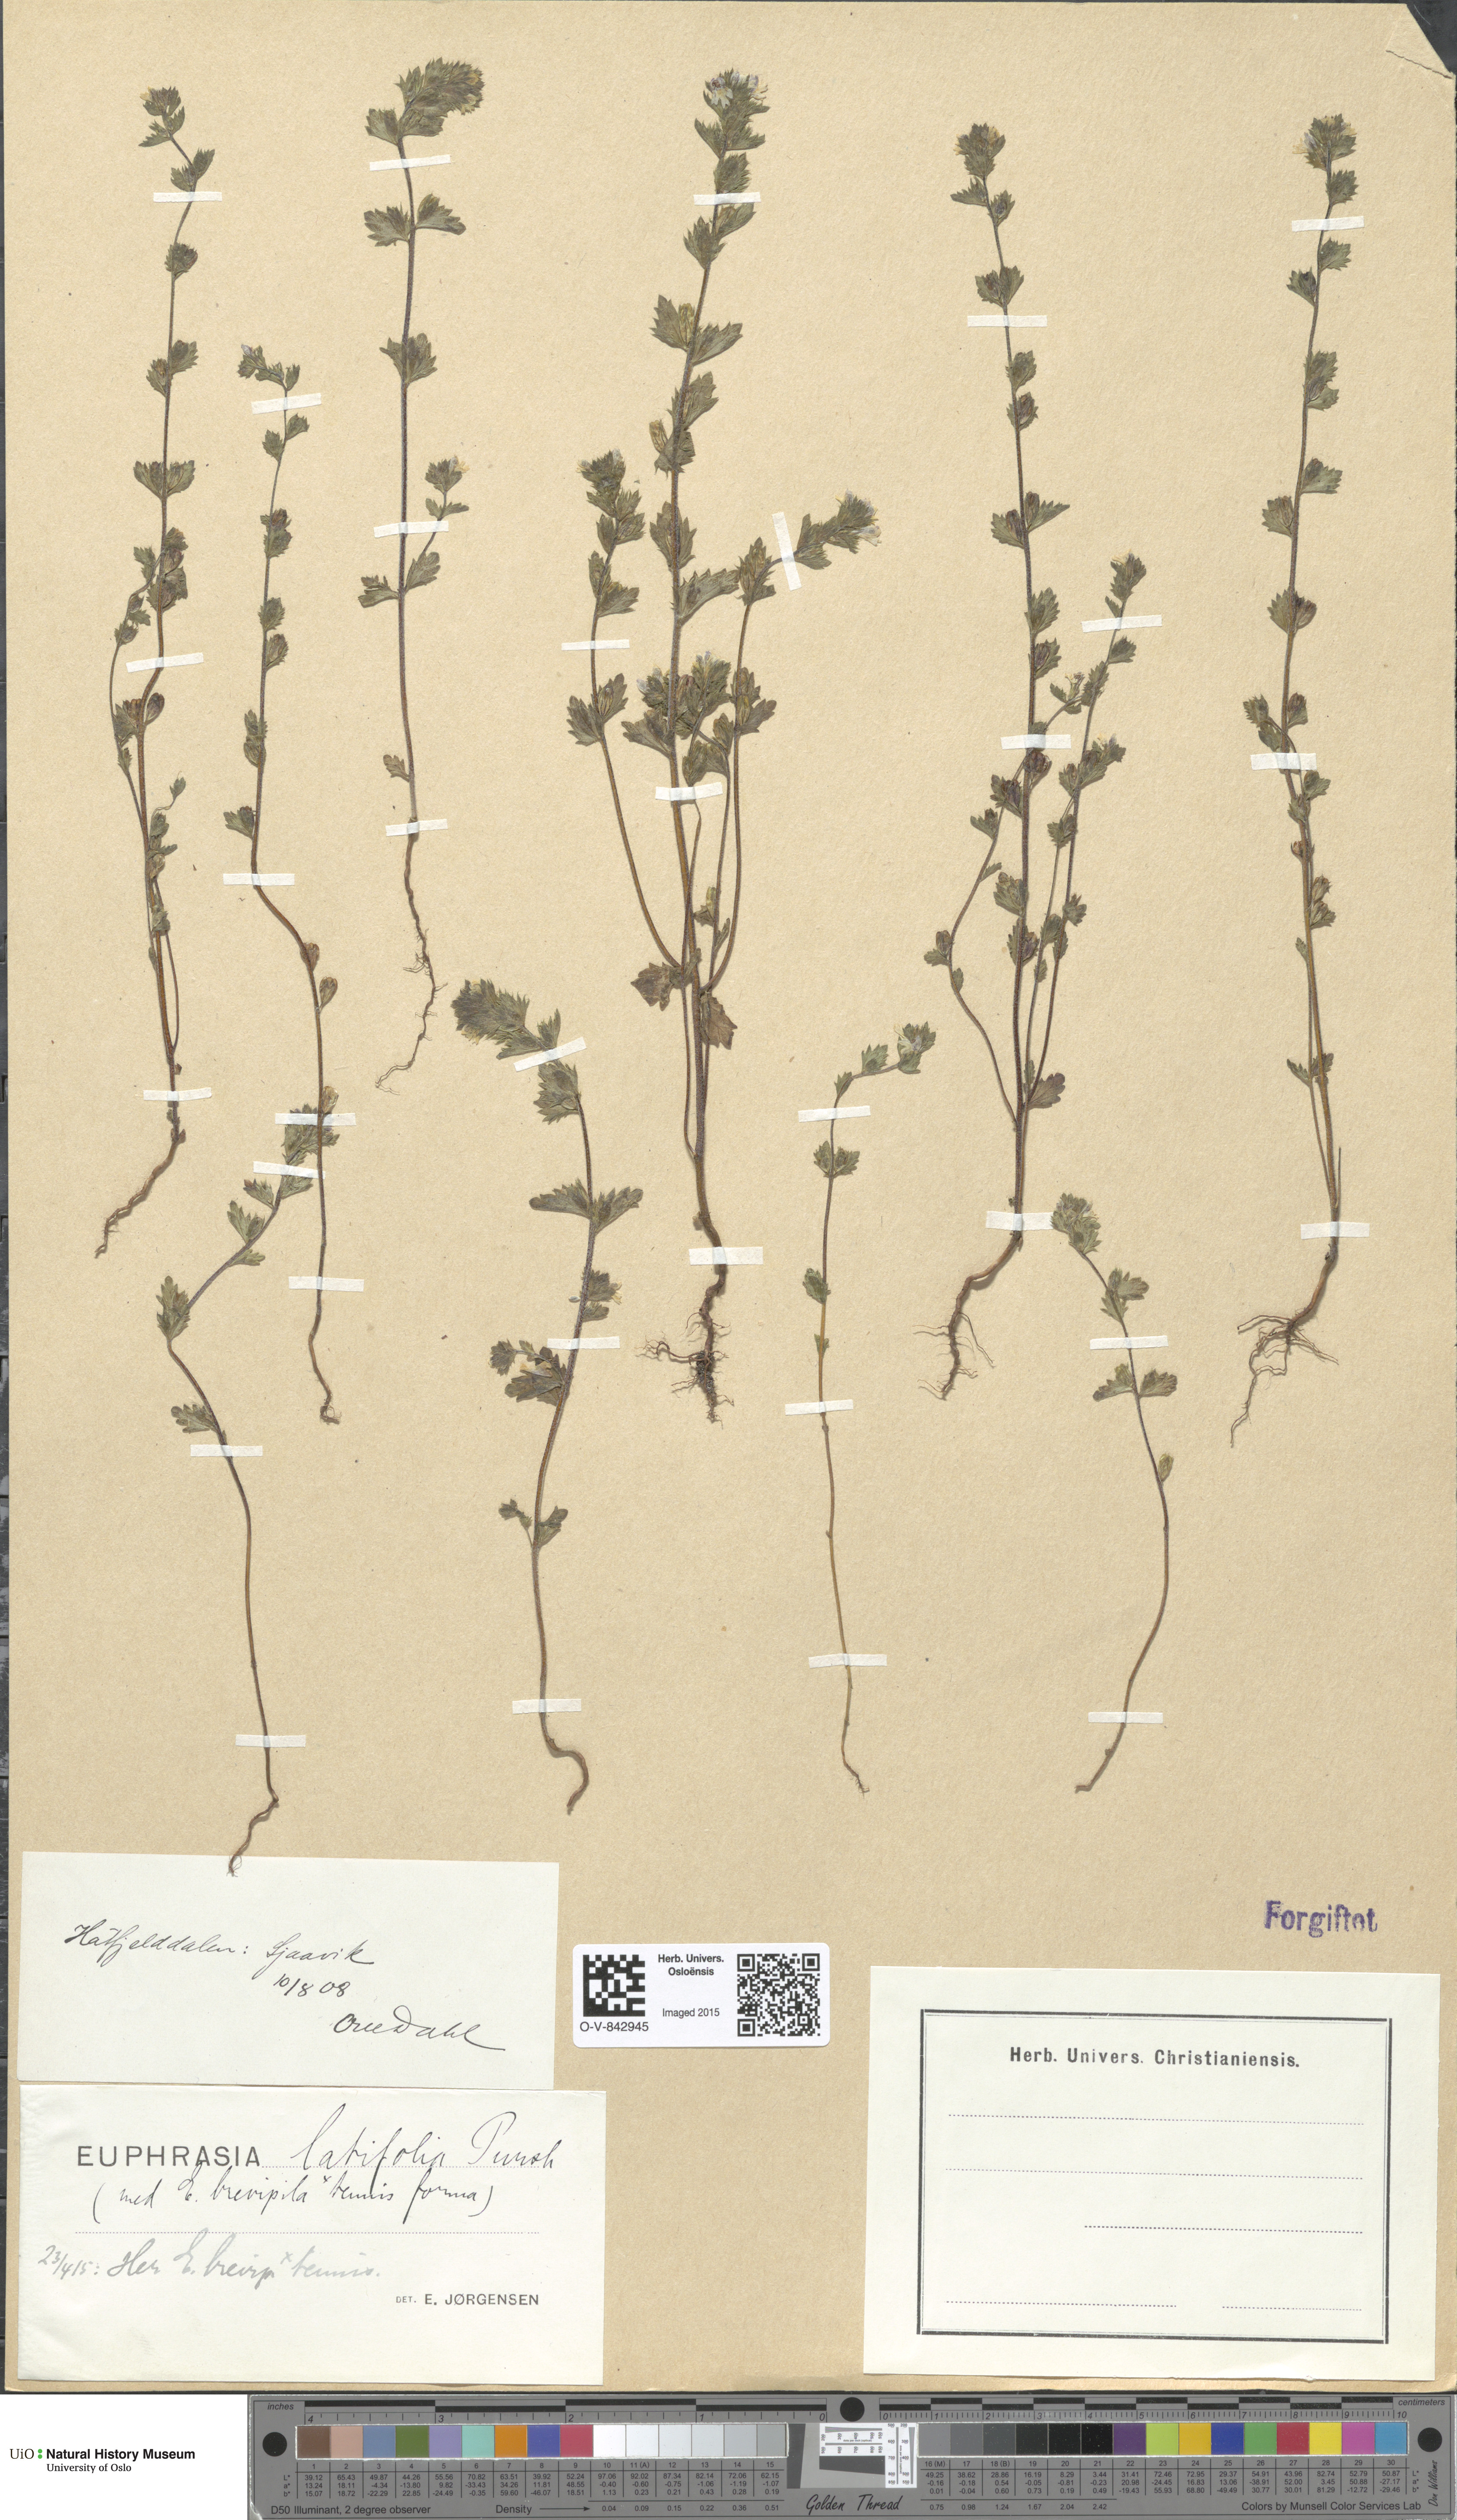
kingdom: Plantae
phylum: Tracheophyta
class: Magnoliopsida
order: Lamiales
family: Orobanchaceae
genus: Euphrasia
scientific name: Euphrasia wettsteinii
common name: Wettstein's eyebright
